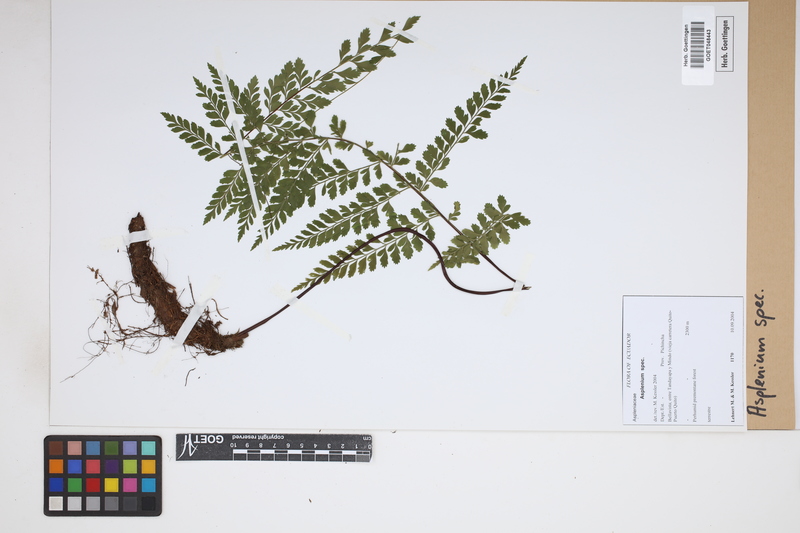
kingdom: Plantae
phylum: Tracheophyta
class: Polypodiopsida
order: Polypodiales
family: Aspleniaceae
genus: Asplenium
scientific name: Asplenium
